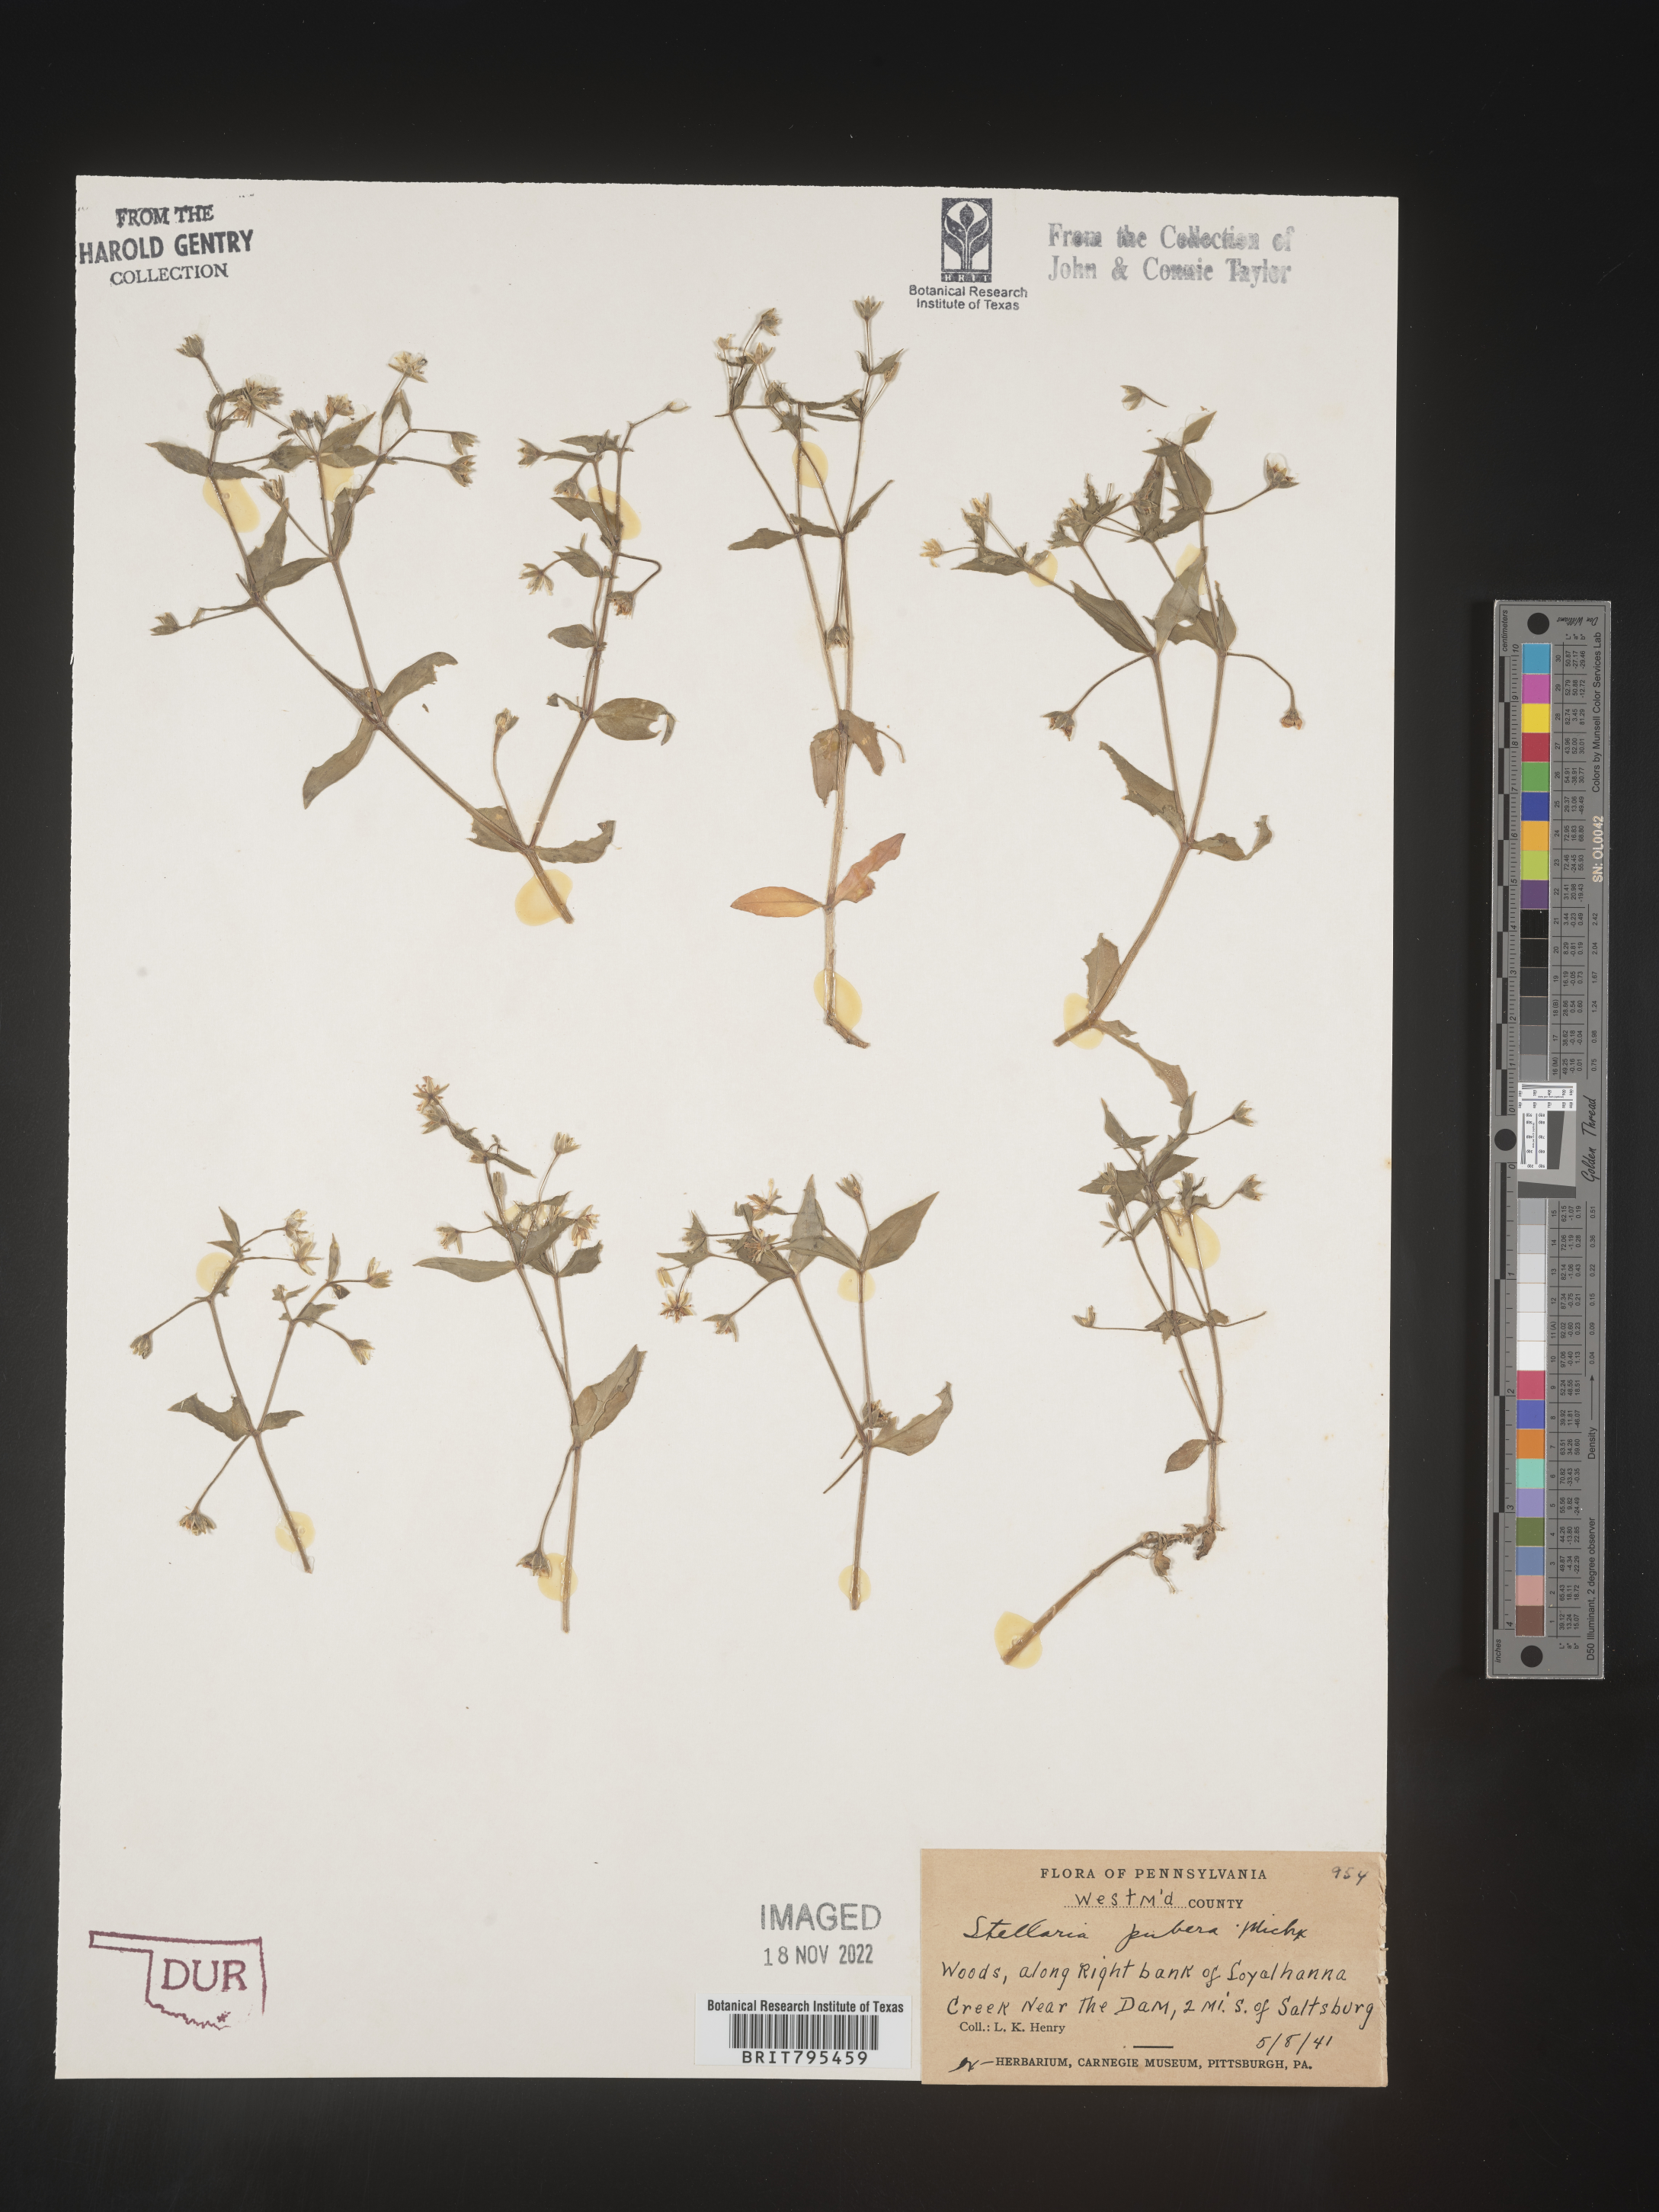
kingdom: Plantae
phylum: Tracheophyta
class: Magnoliopsida
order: Caryophyllales
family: Caryophyllaceae
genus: Stellaria
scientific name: Stellaria pubera
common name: Star chickweed
